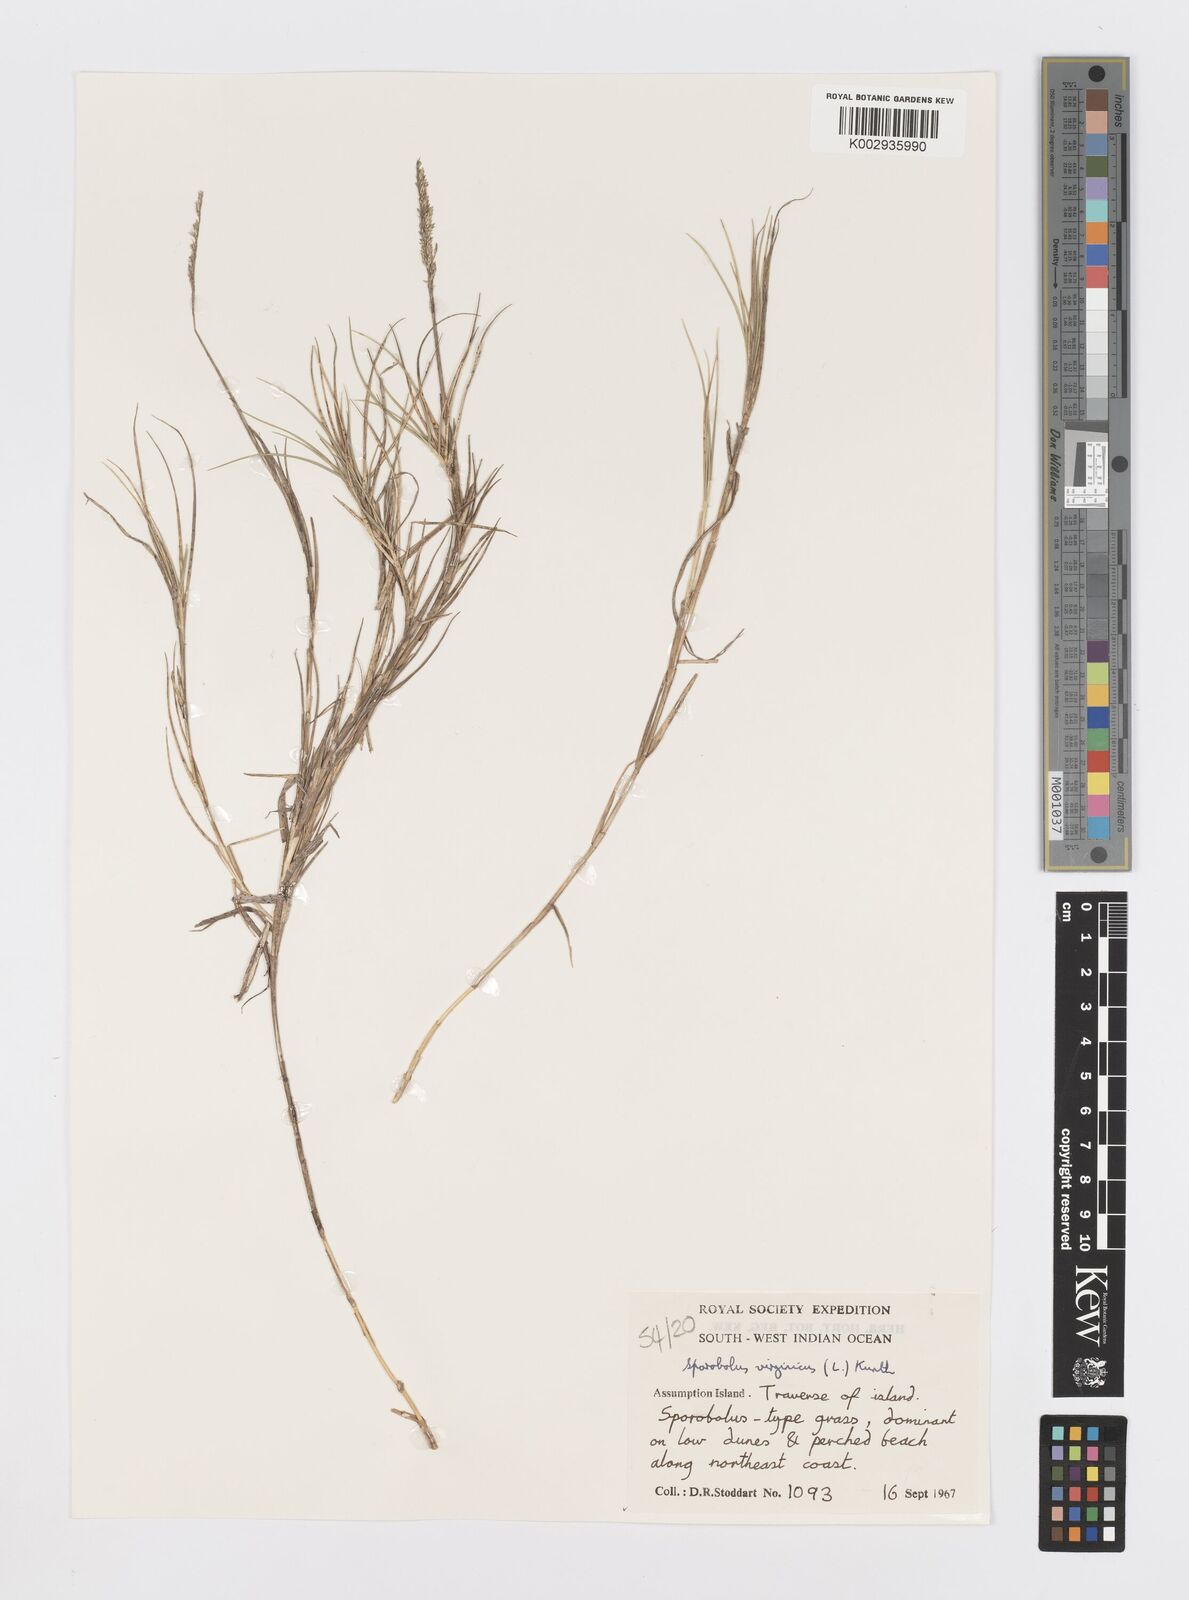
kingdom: Plantae
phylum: Tracheophyta
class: Liliopsida
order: Poales
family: Poaceae
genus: Sporobolus
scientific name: Sporobolus virginicus
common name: Beach dropseed
